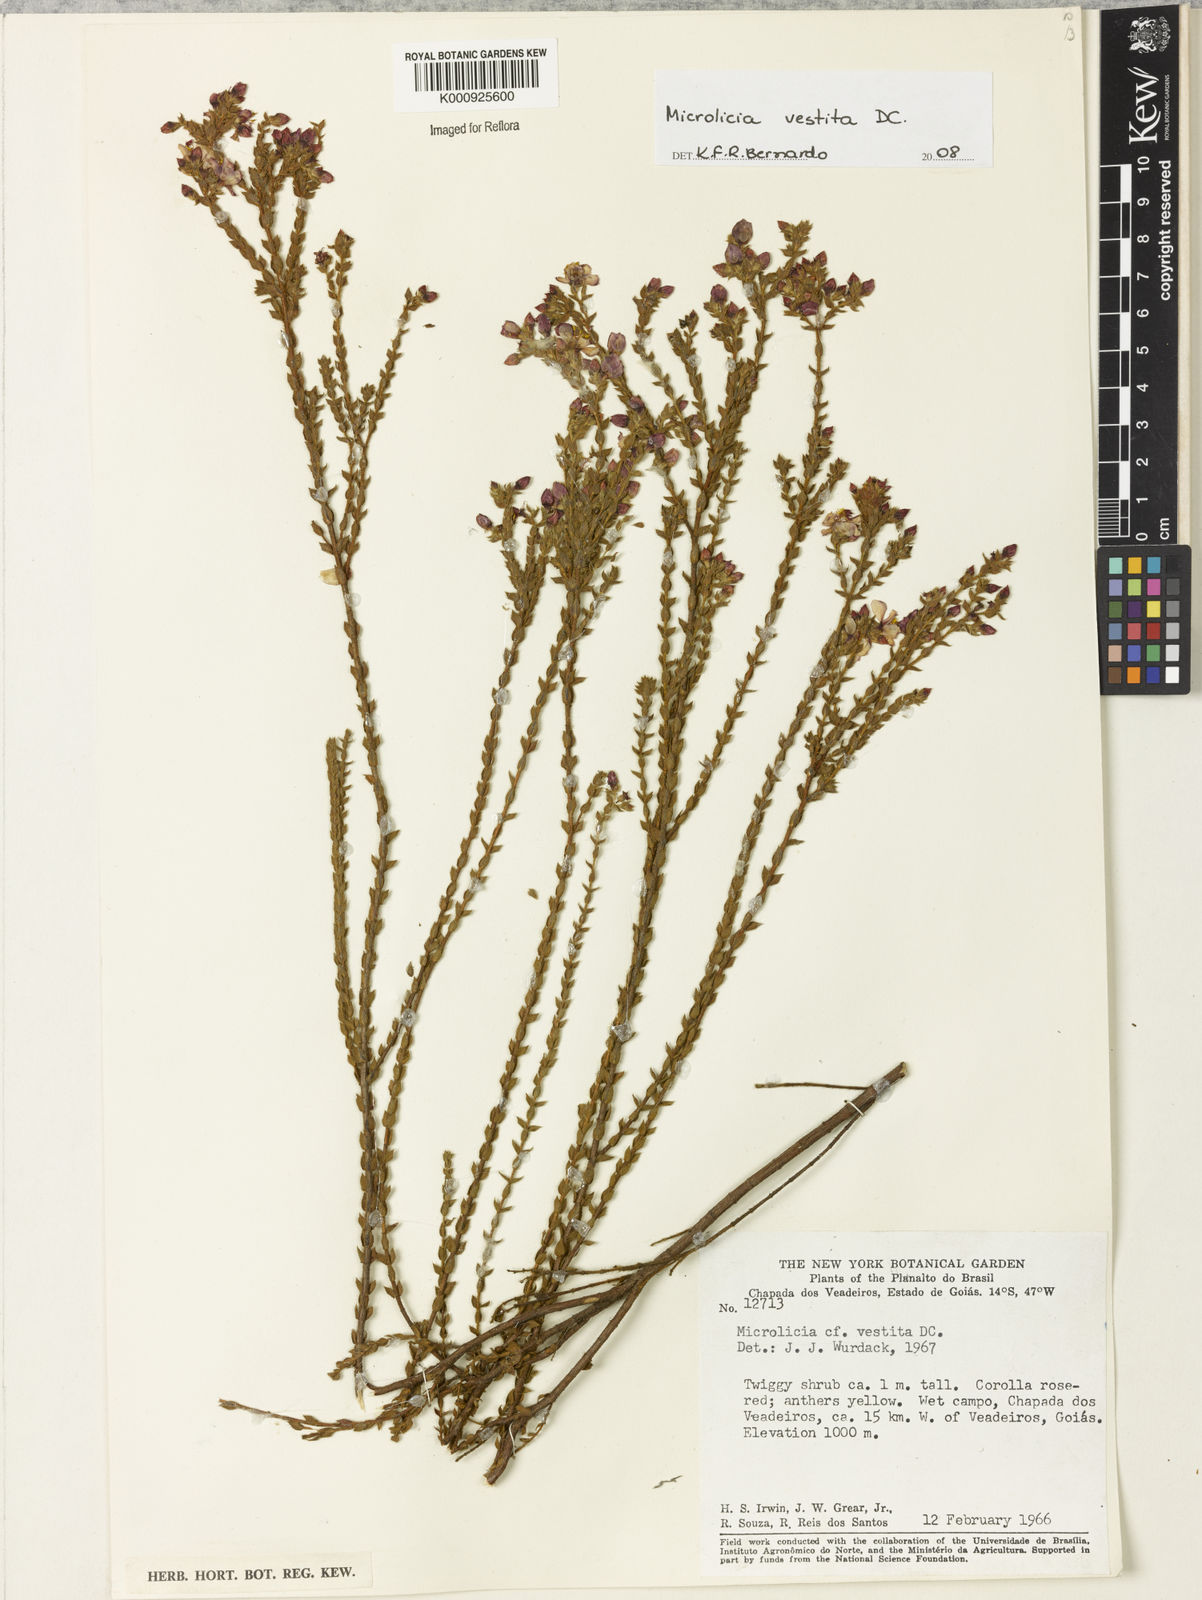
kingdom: Plantae
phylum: Tracheophyta
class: Magnoliopsida
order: Myrtales
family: Melastomataceae
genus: Microlicia
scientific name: Microlicia vestita
